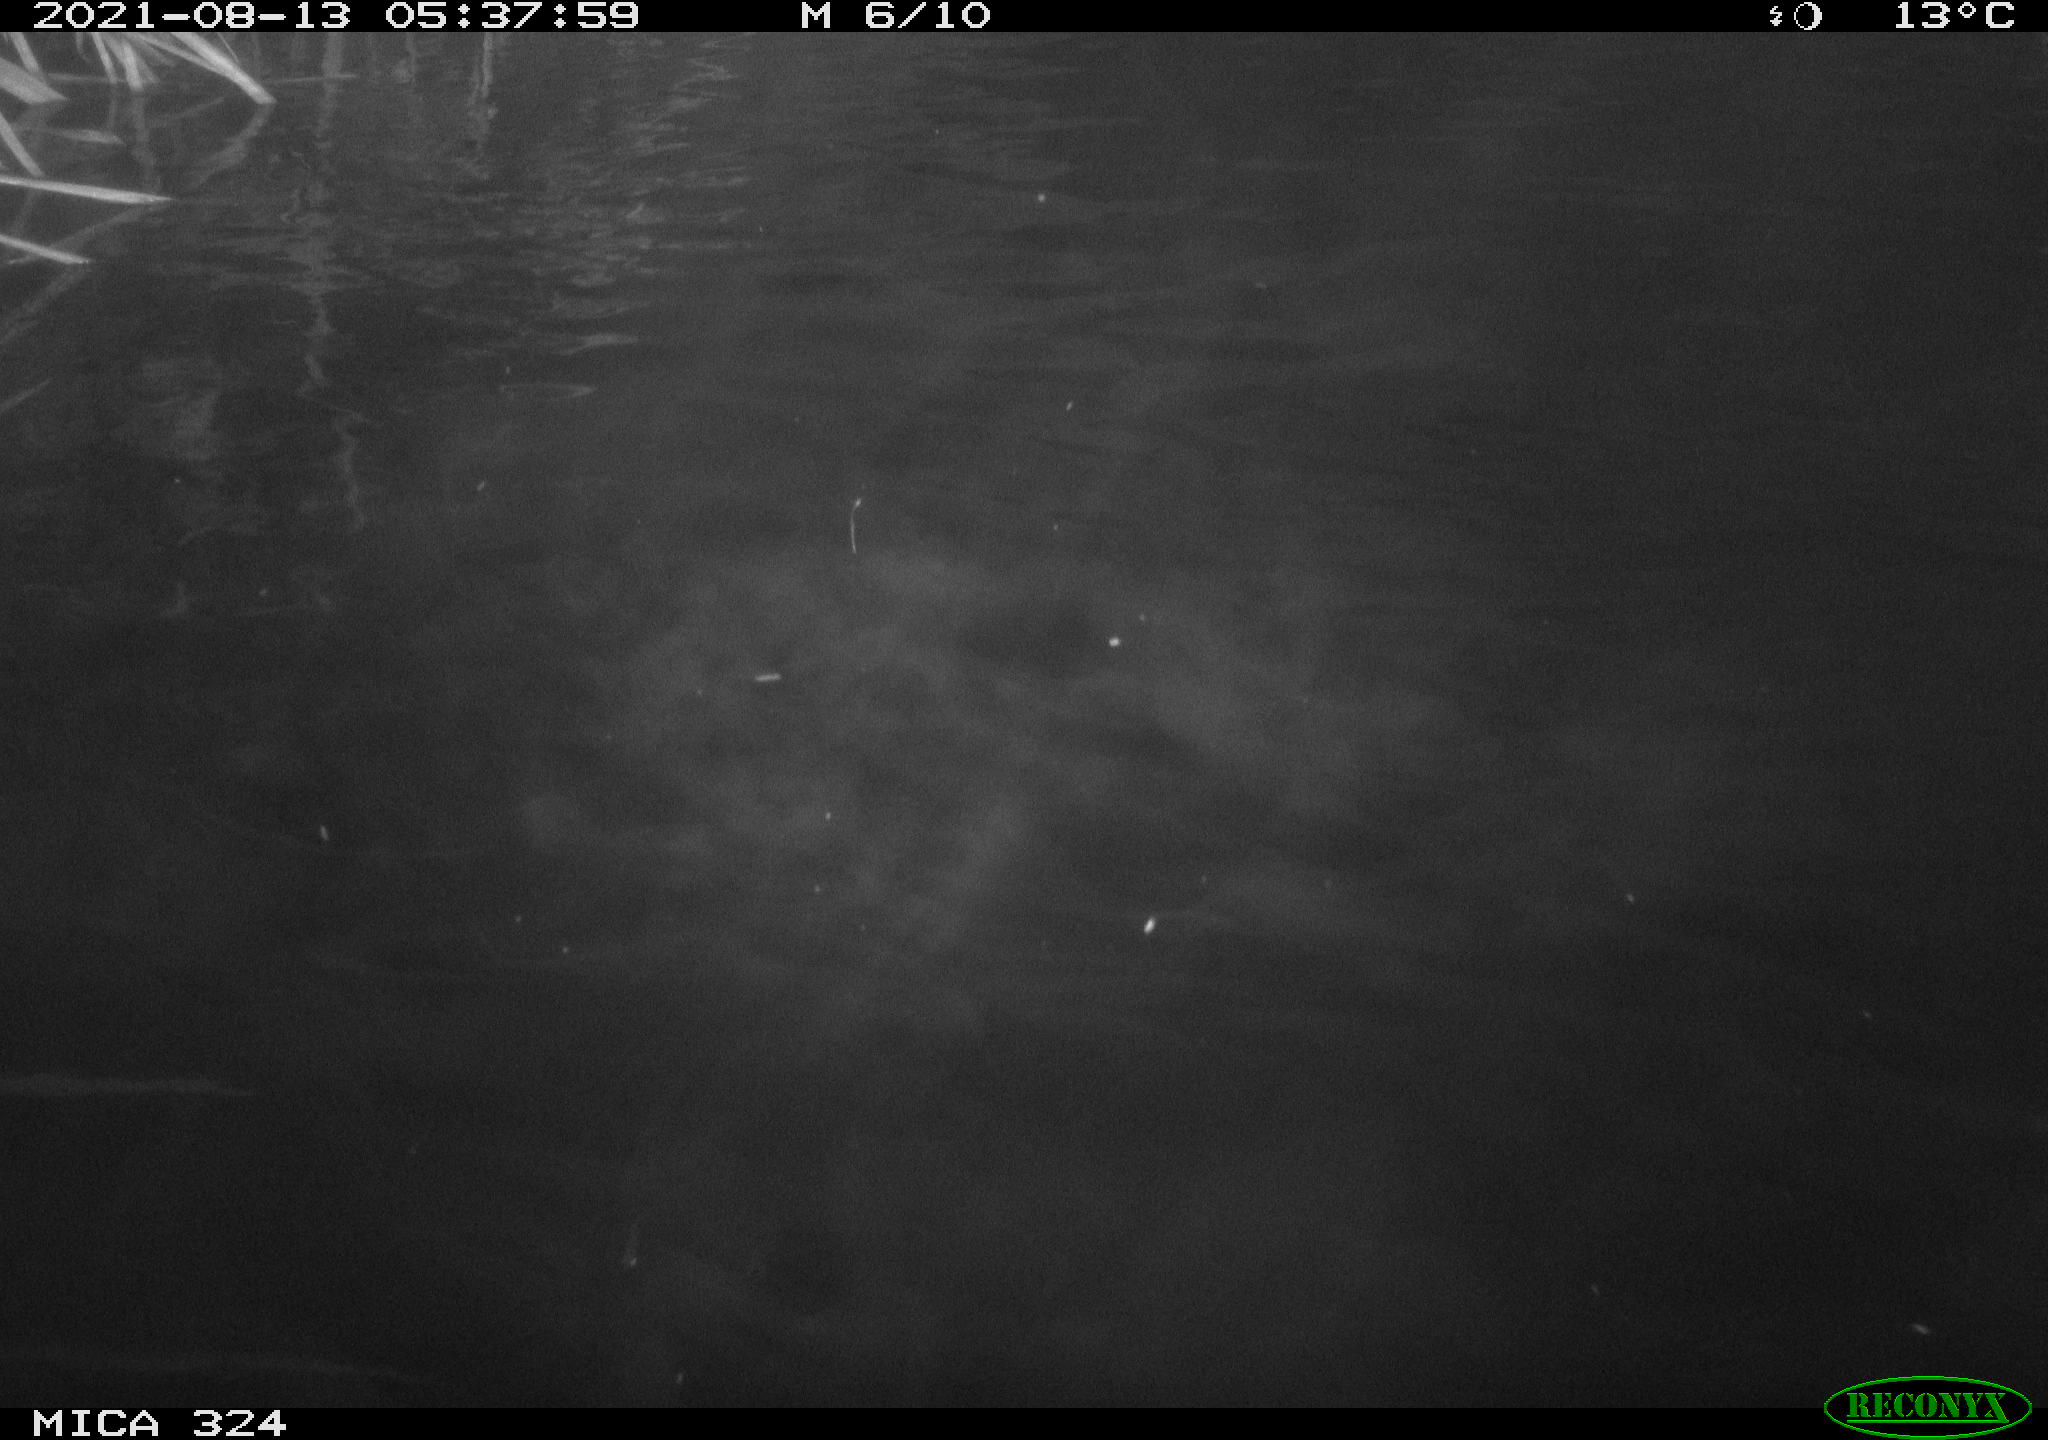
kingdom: Animalia
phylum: Chordata
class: Aves
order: Anseriformes
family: Anatidae
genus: Anas
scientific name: Anas platyrhynchos
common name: Mallard
